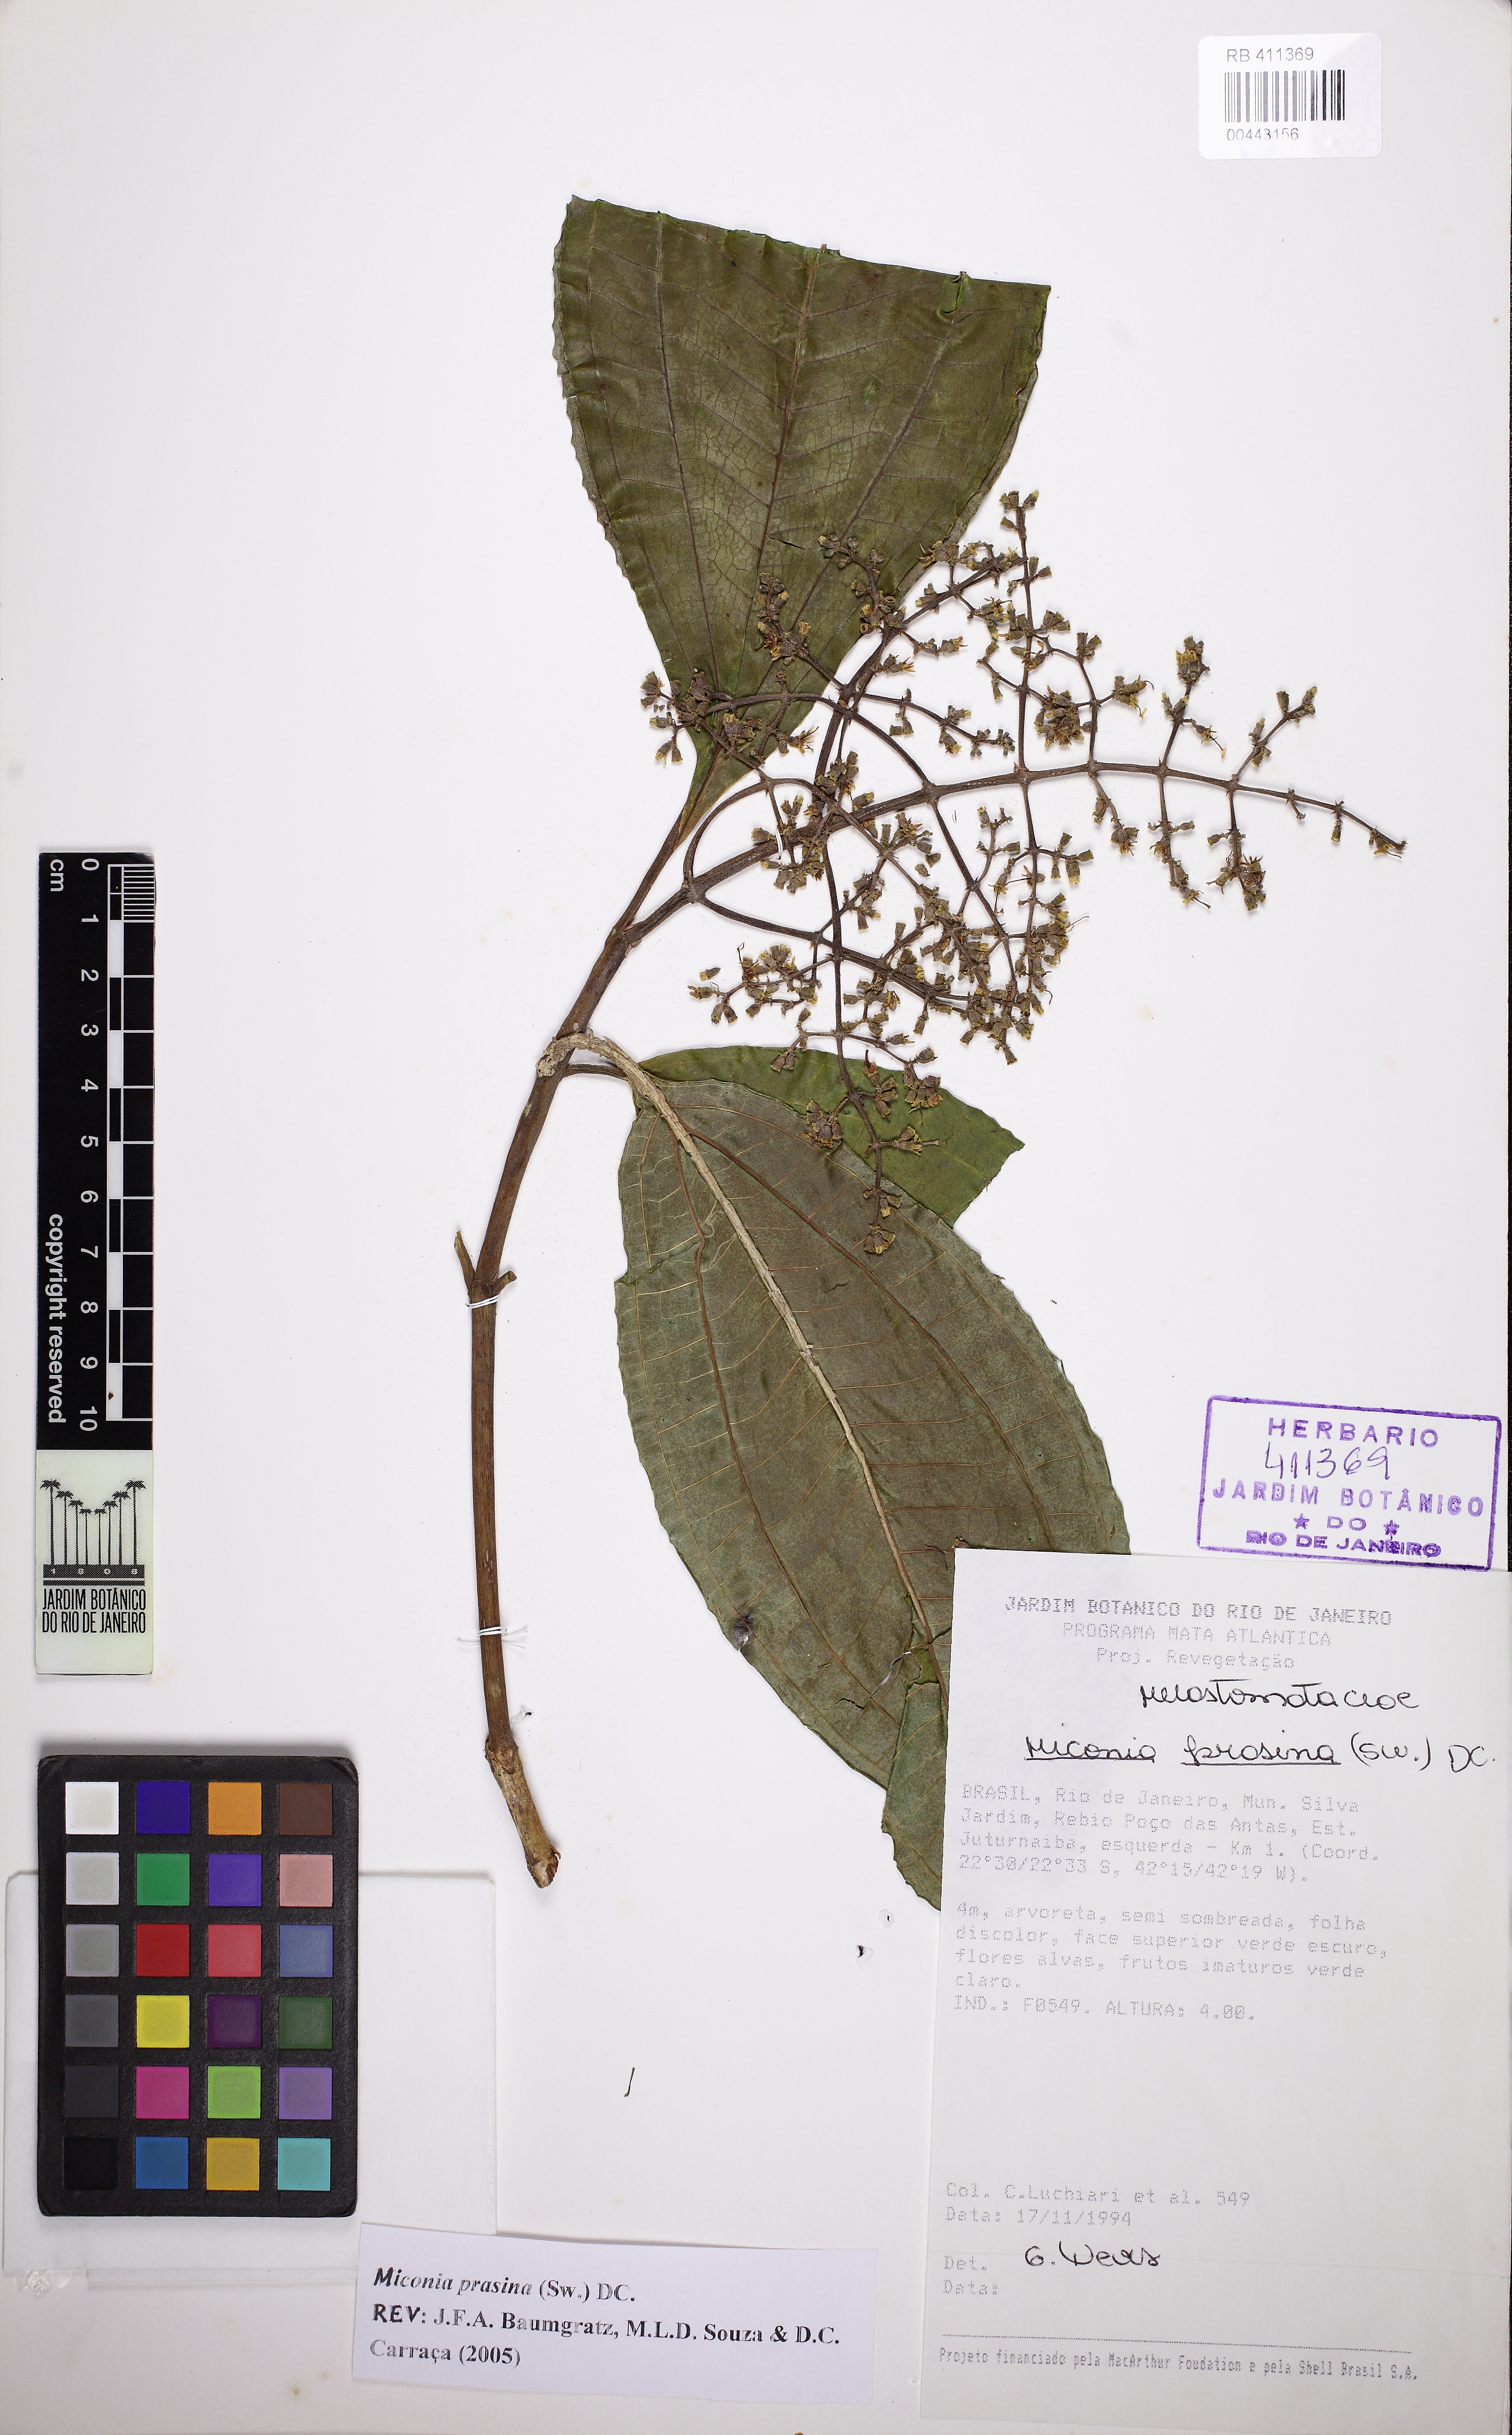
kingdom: Plantae
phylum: Tracheophyta
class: Magnoliopsida
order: Myrtales
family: Melastomataceae
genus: Miconia
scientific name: Miconia prasina
